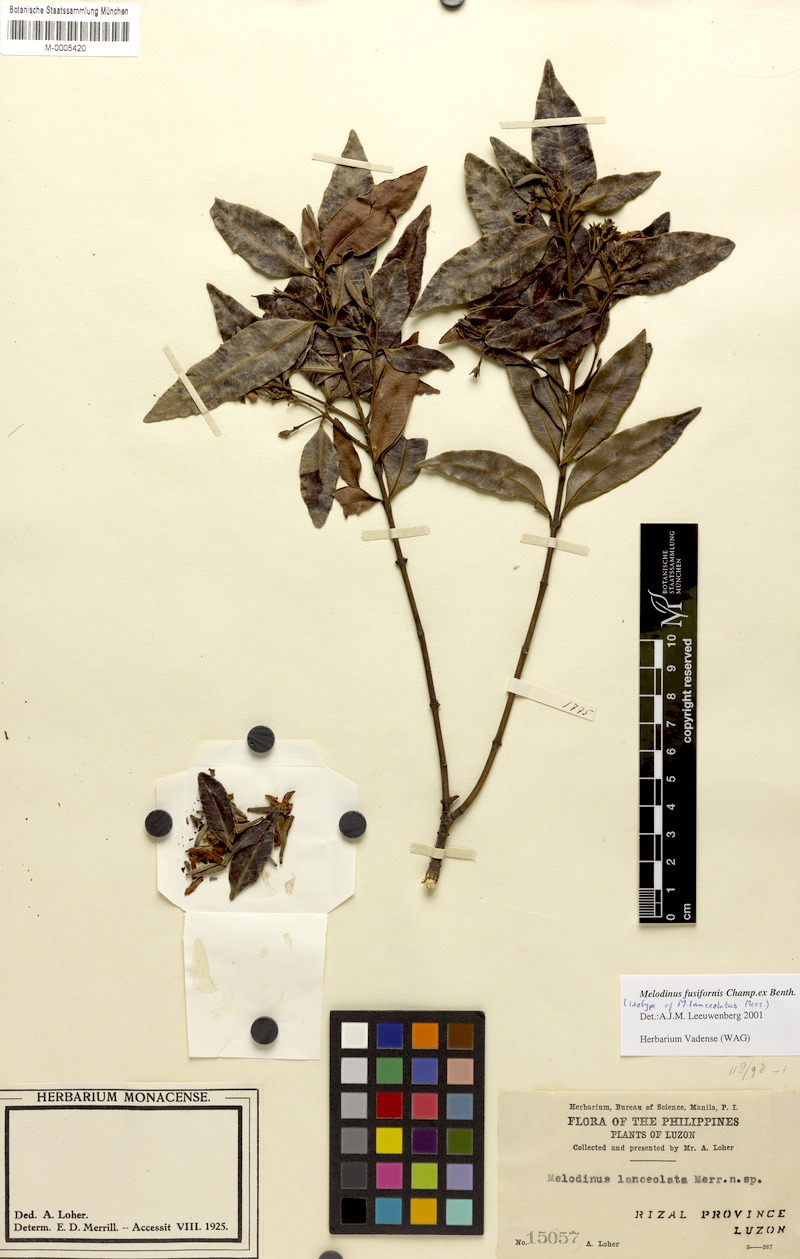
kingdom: Plantae
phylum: Tracheophyta
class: Magnoliopsida
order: Gentianales
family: Apocynaceae
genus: Melodinus
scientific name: Melodinus fusiformis
